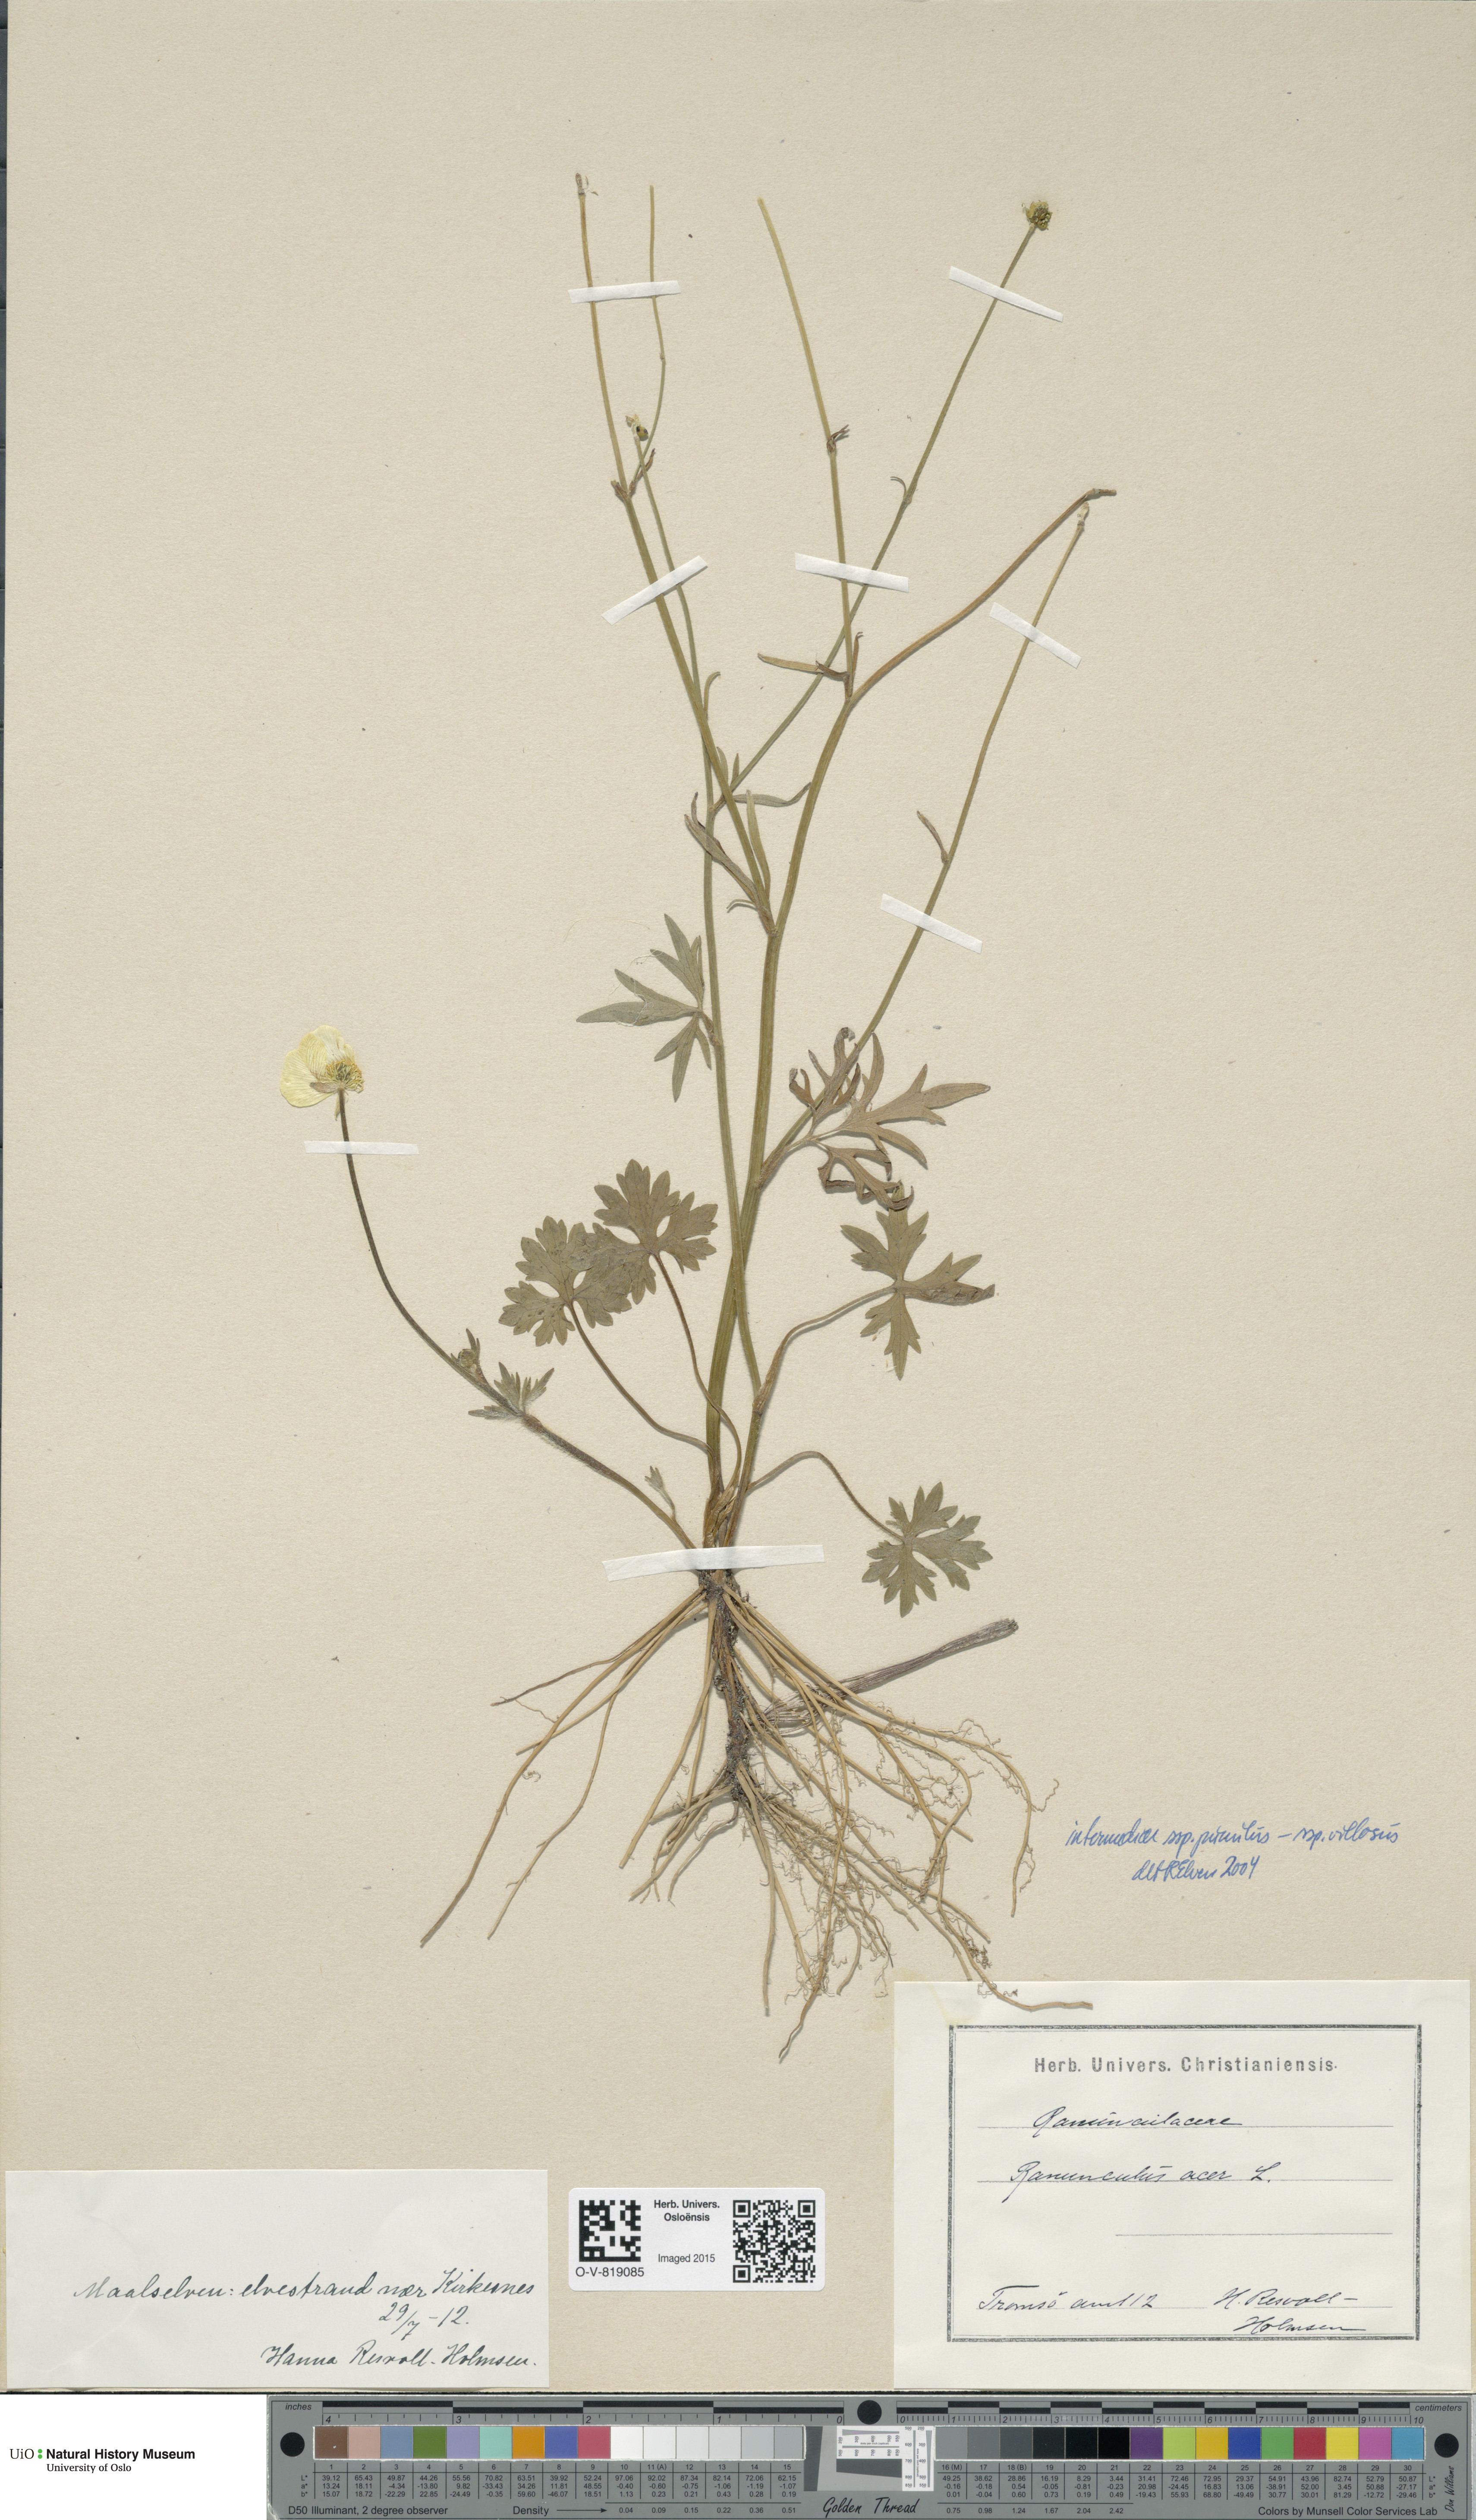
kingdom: Plantae
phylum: Tracheophyta
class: Magnoliopsida
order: Ranunculales
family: Ranunculaceae
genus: Ranunculus
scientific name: Ranunculus
